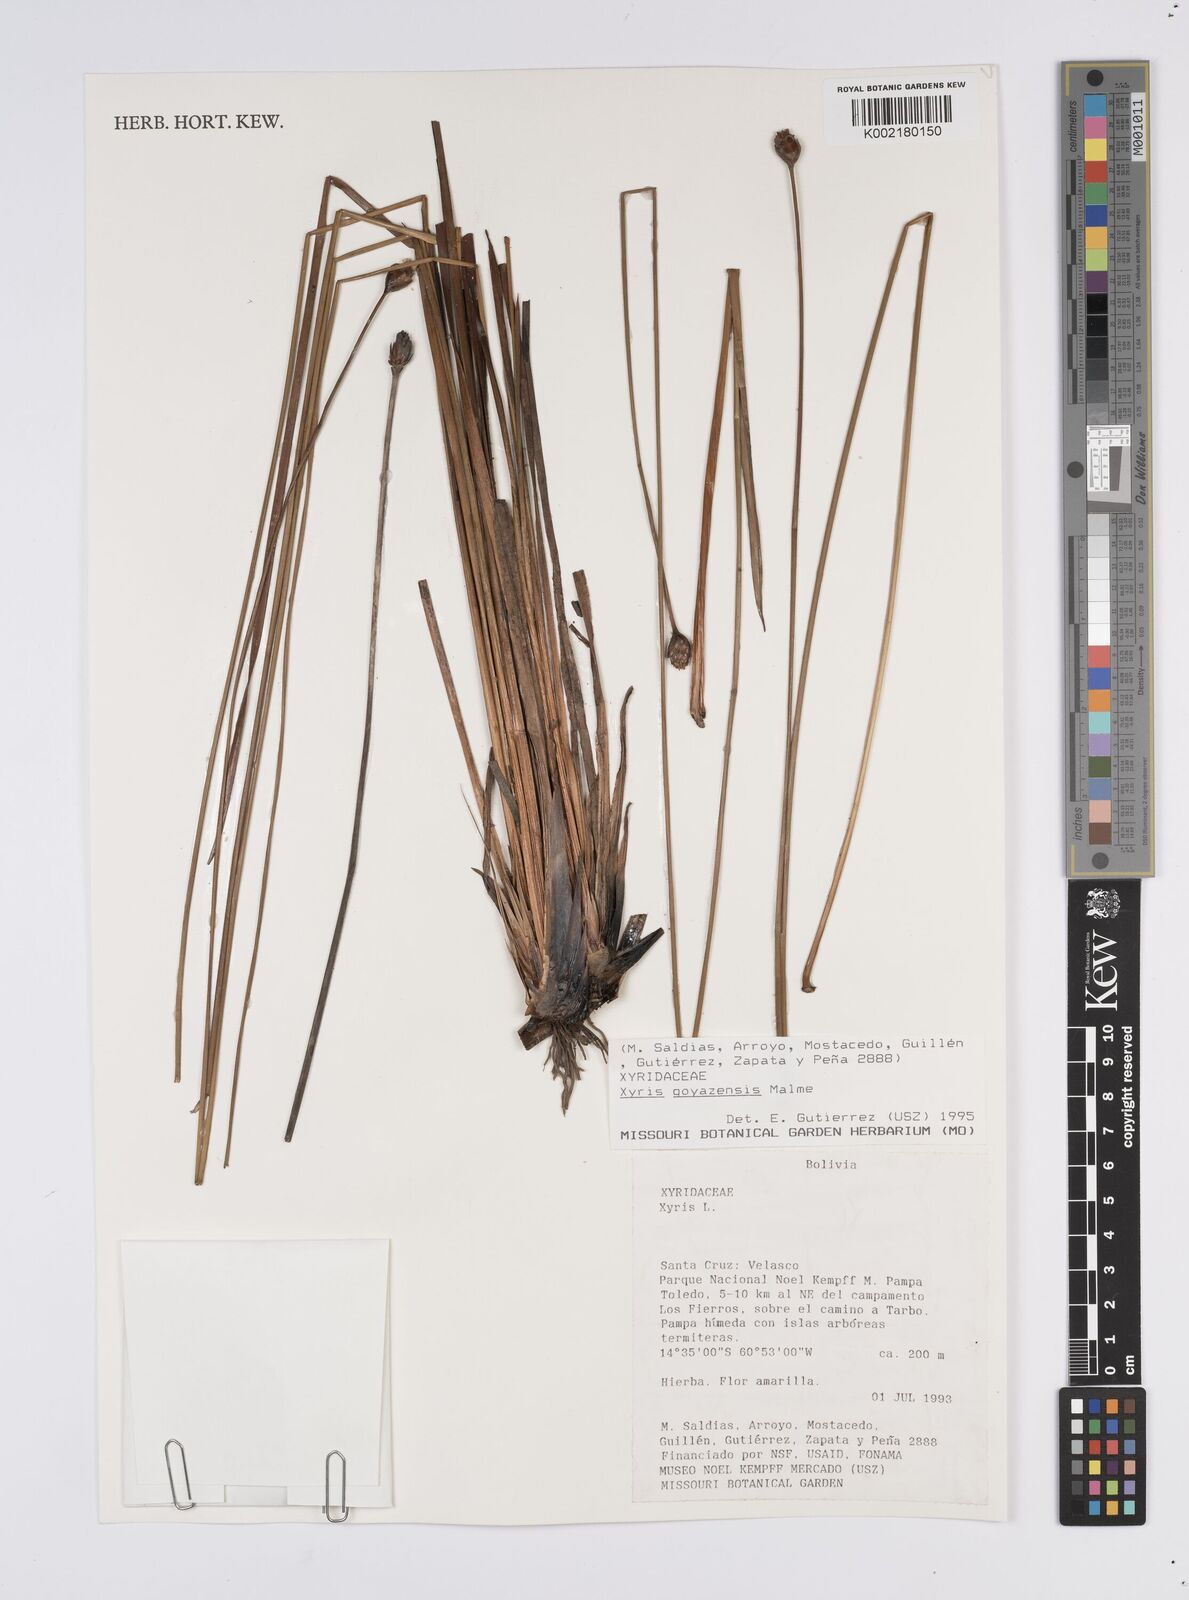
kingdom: Plantae
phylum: Tracheophyta
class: Liliopsida
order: Poales
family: Xyridaceae
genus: Xyris
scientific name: Xyris goyazensis
